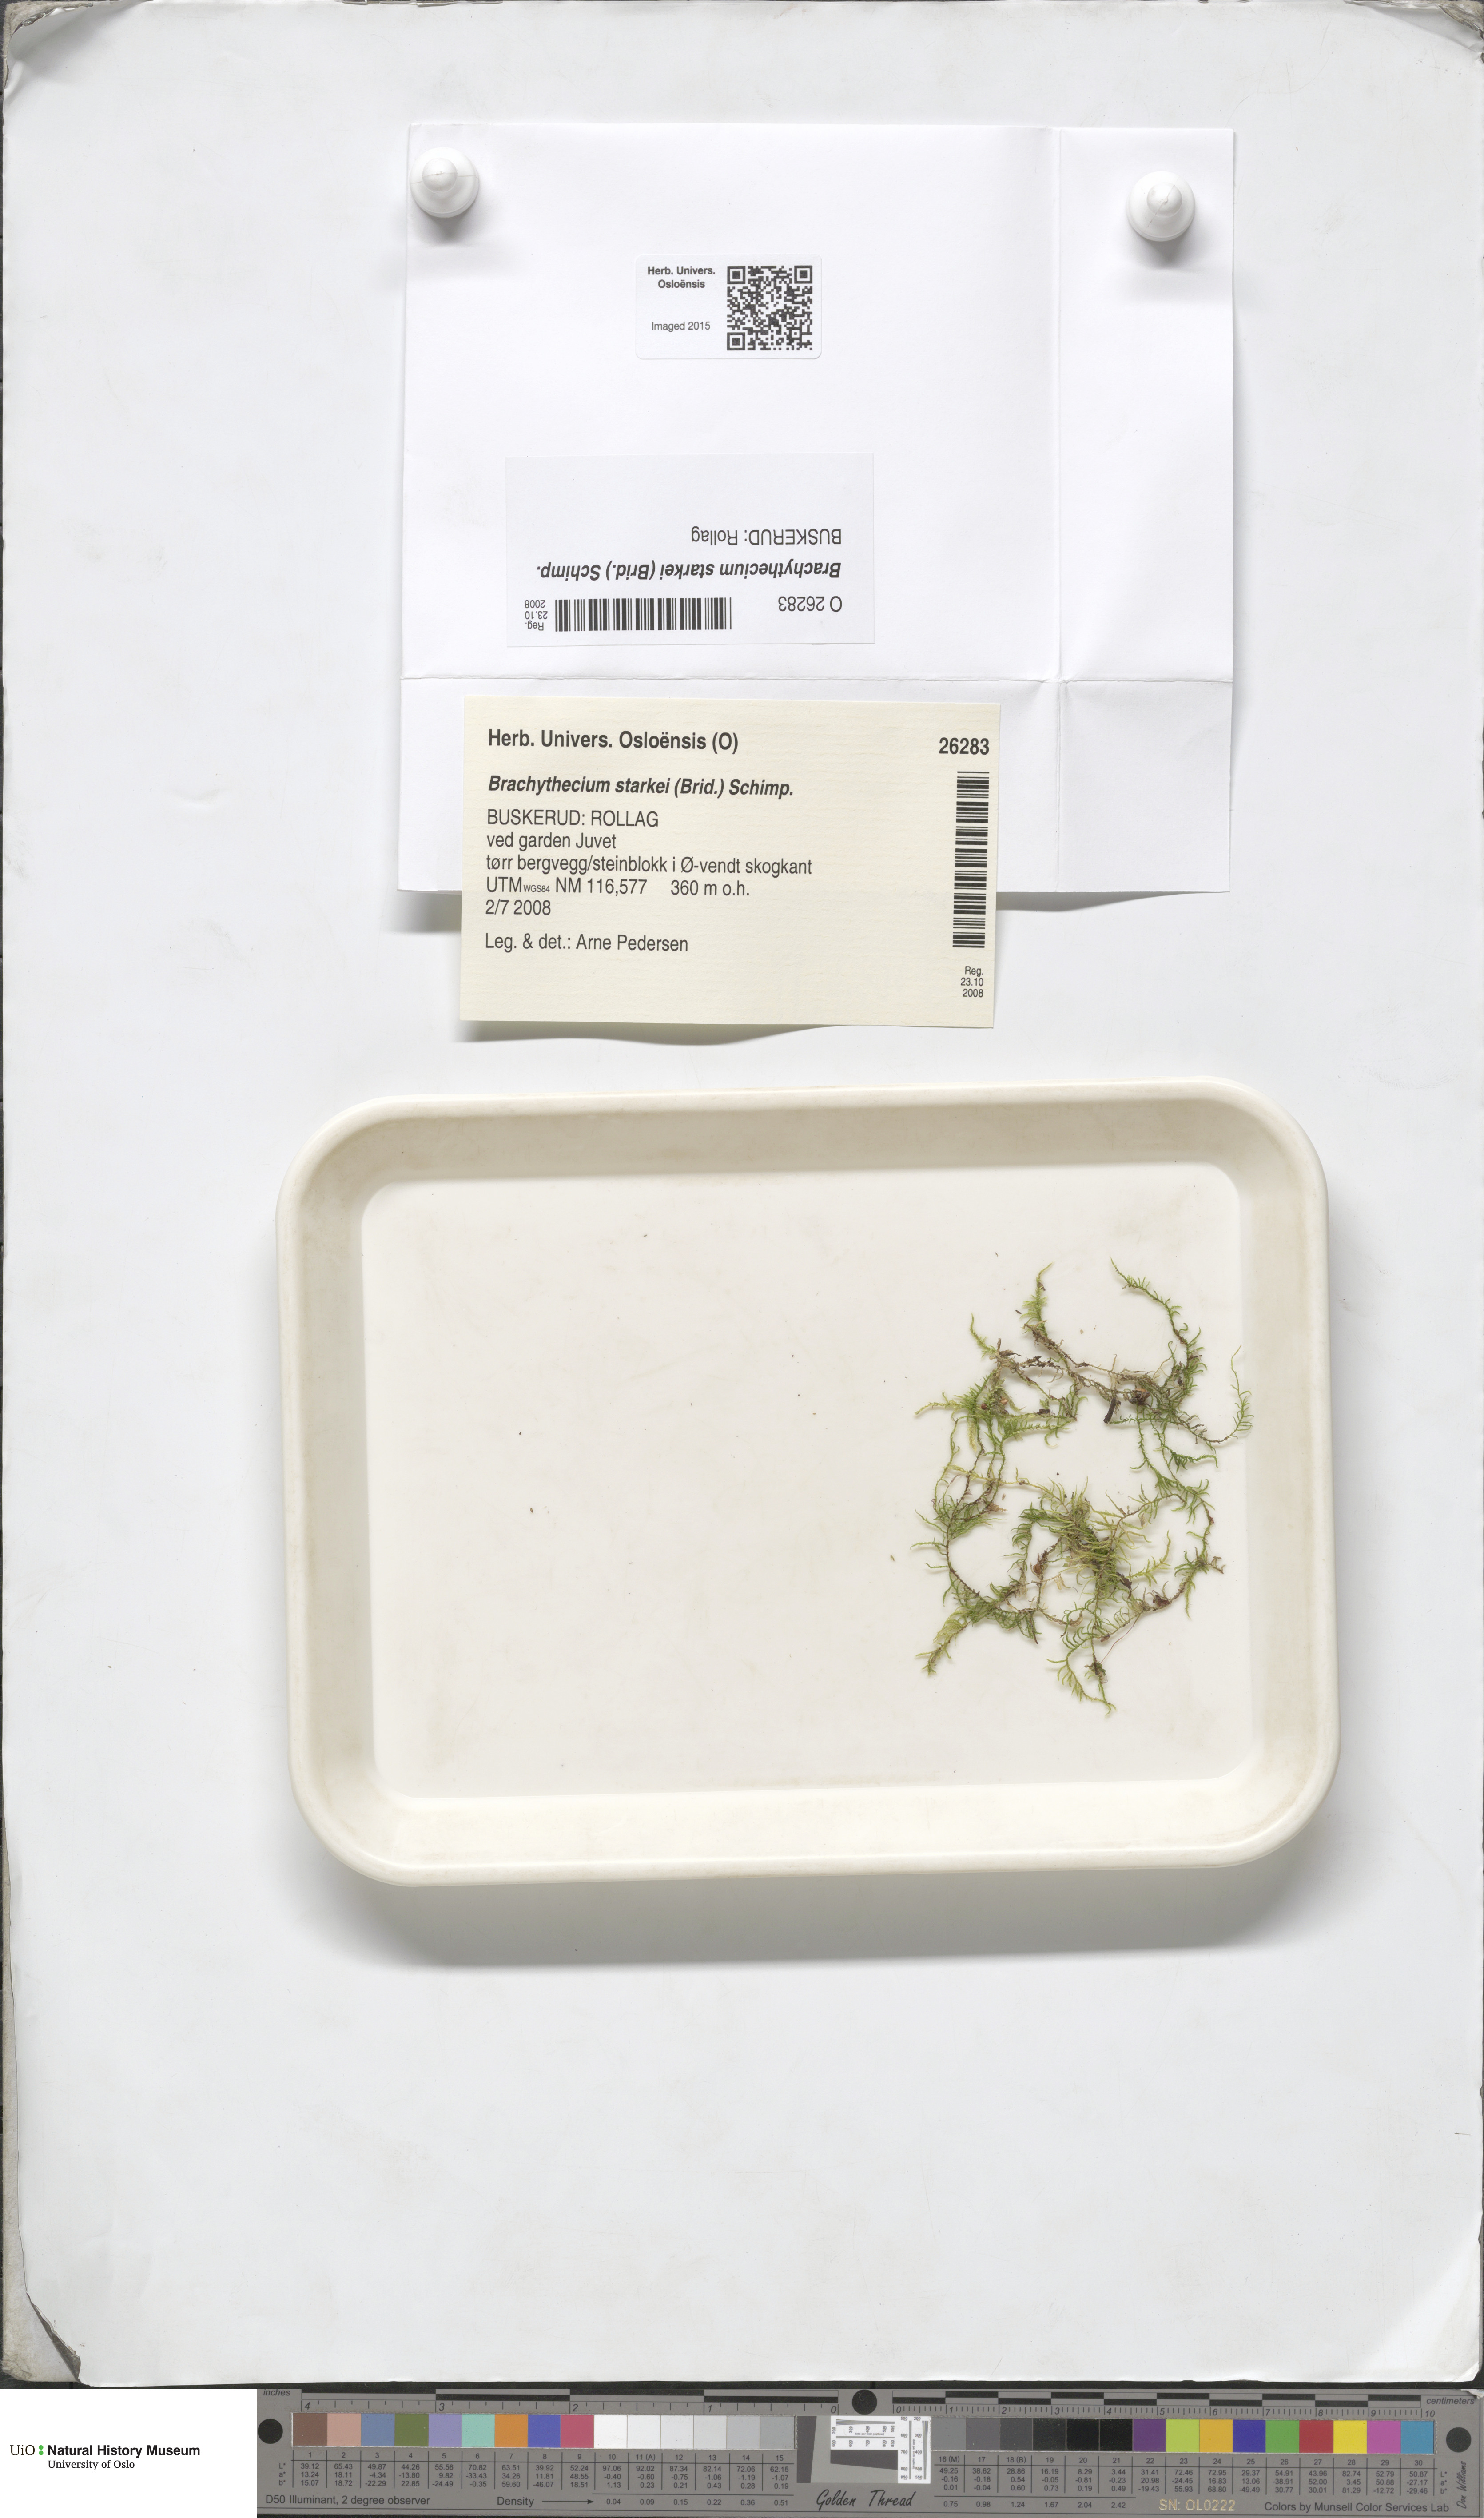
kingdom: Plantae
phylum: Bryophyta
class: Bryopsida
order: Hypnales
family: Brachytheciaceae
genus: Sciuro-hypnum
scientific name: Sciuro-hypnum starkei
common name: Starke's feather-moss
